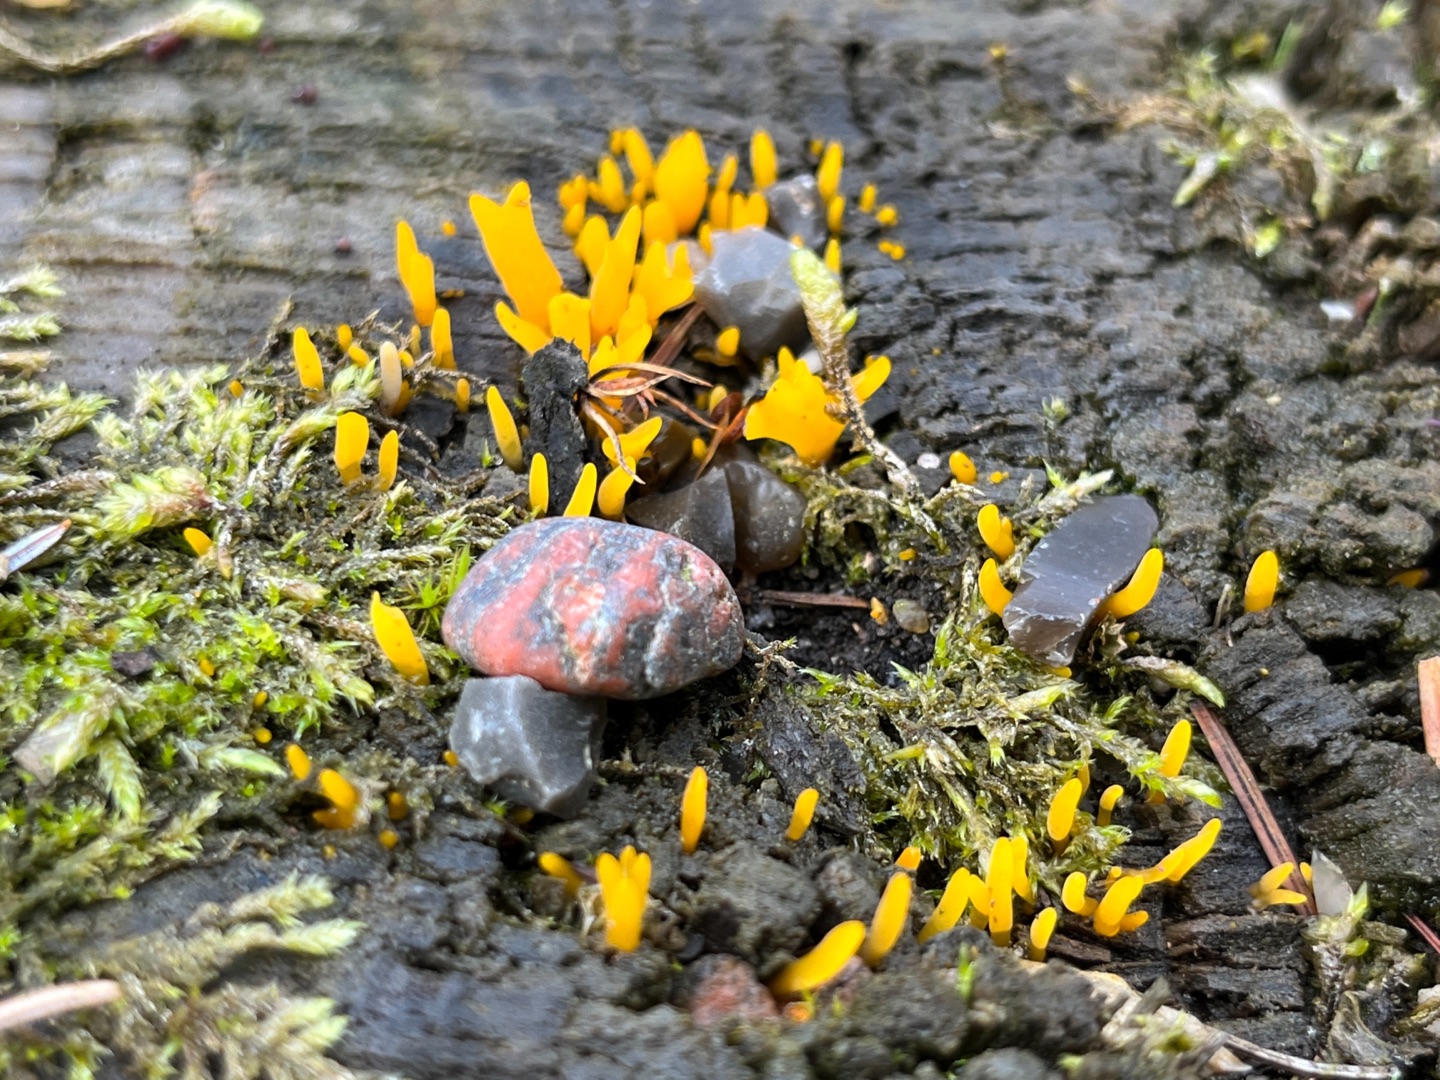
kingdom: Fungi
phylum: Basidiomycota
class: Dacrymycetes
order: Dacrymycetales
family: Dacrymycetaceae
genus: Calocera
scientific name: Calocera cornea
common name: Liden guldgaffel
